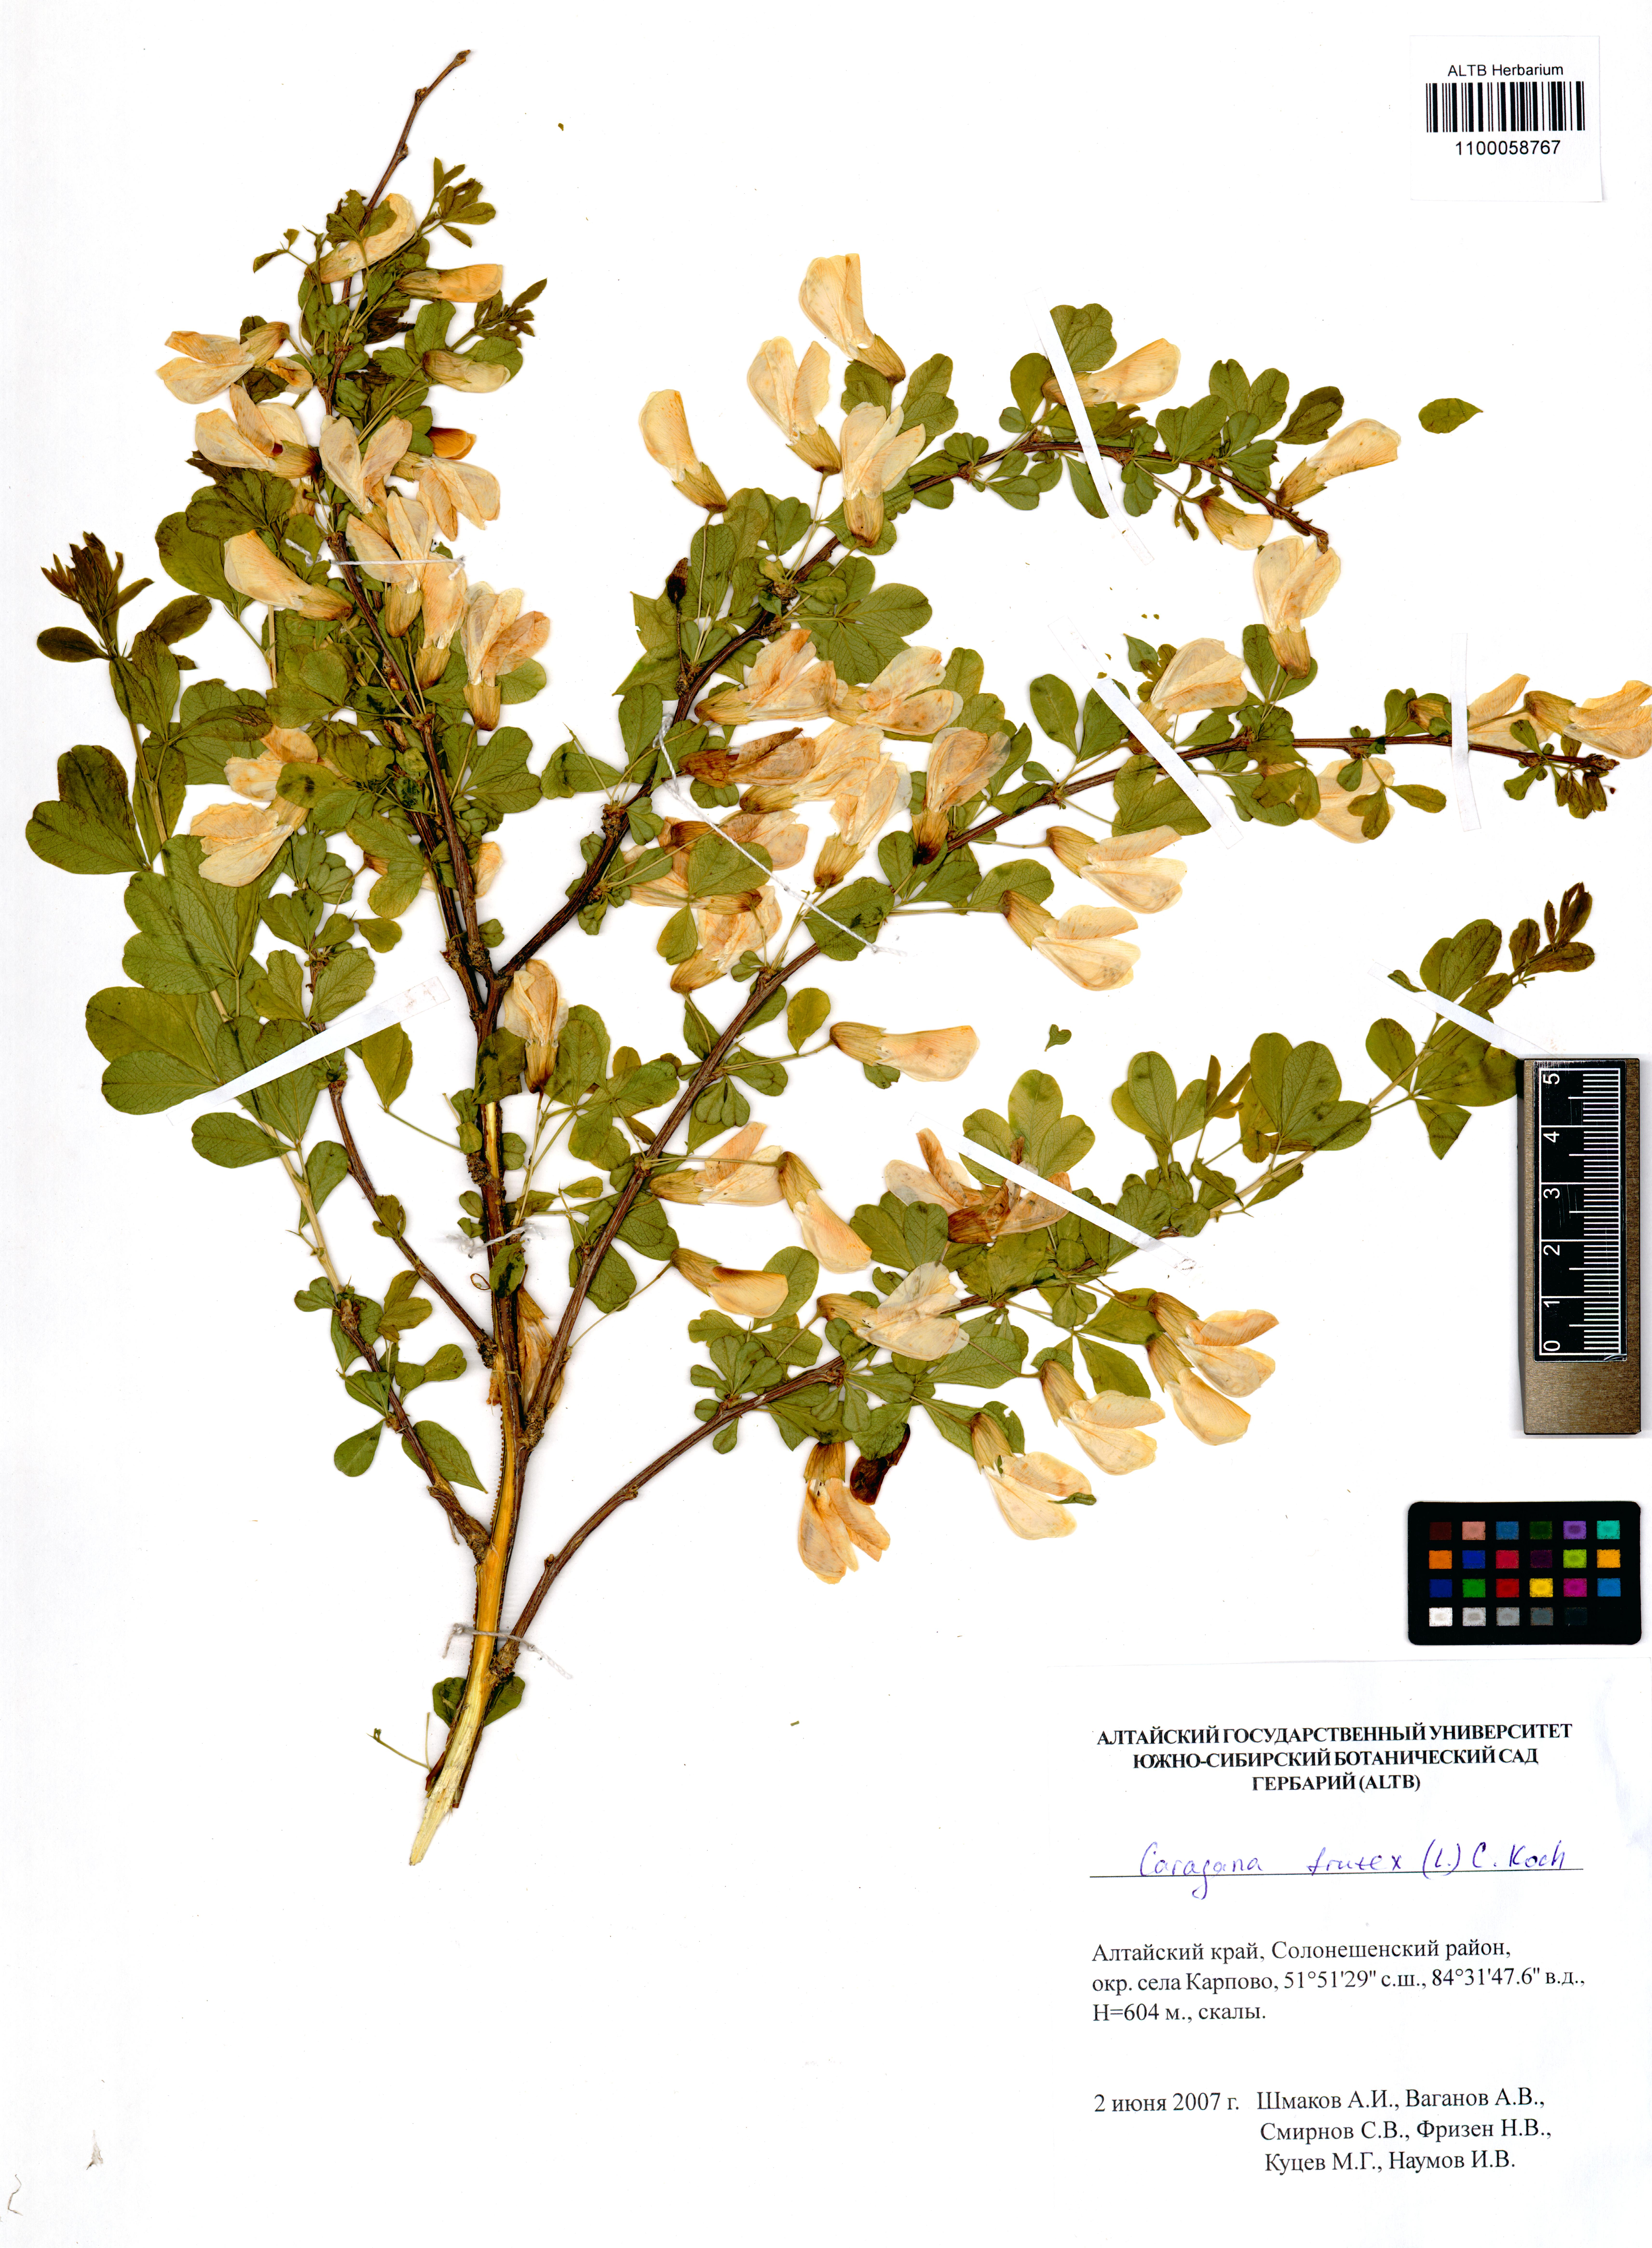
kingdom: Plantae
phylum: Tracheophyta
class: Magnoliopsida
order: Fabales
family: Fabaceae
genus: Caragana
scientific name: Caragana frutex
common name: Russian peashrub
